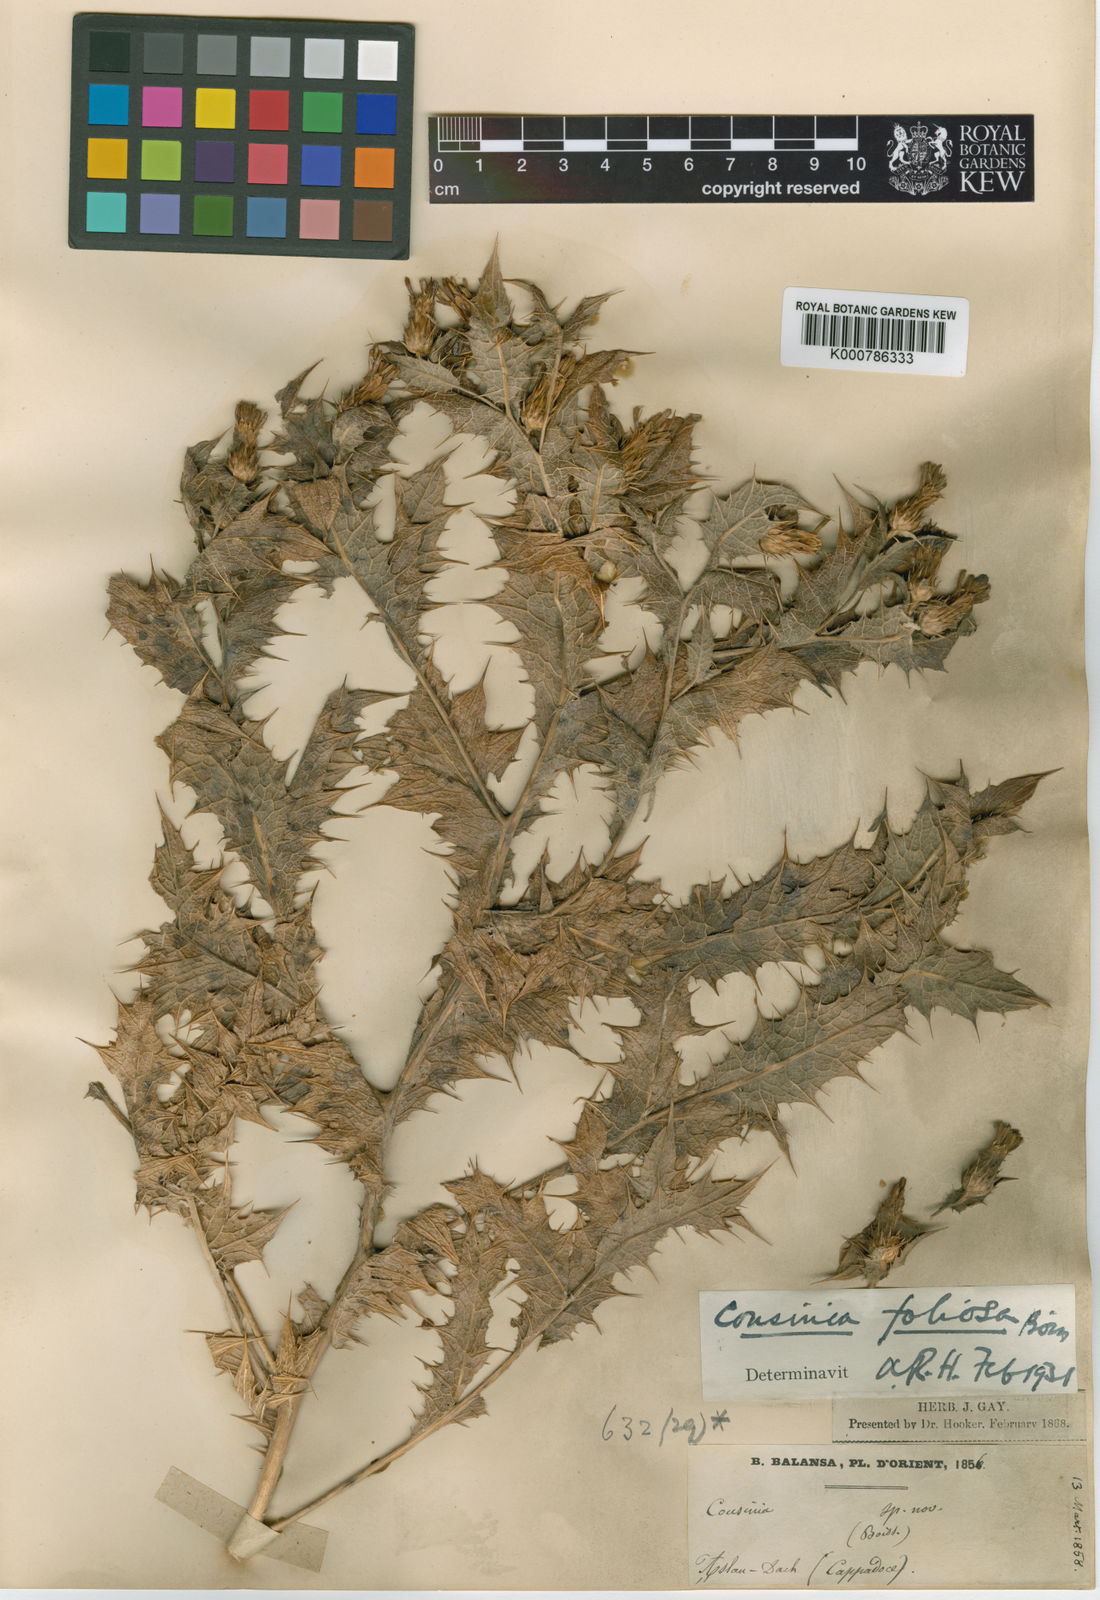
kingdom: Plantae
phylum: Tracheophyta
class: Magnoliopsida
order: Asterales
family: Asteraceae
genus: Cousinia
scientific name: Cousinia foliosa
